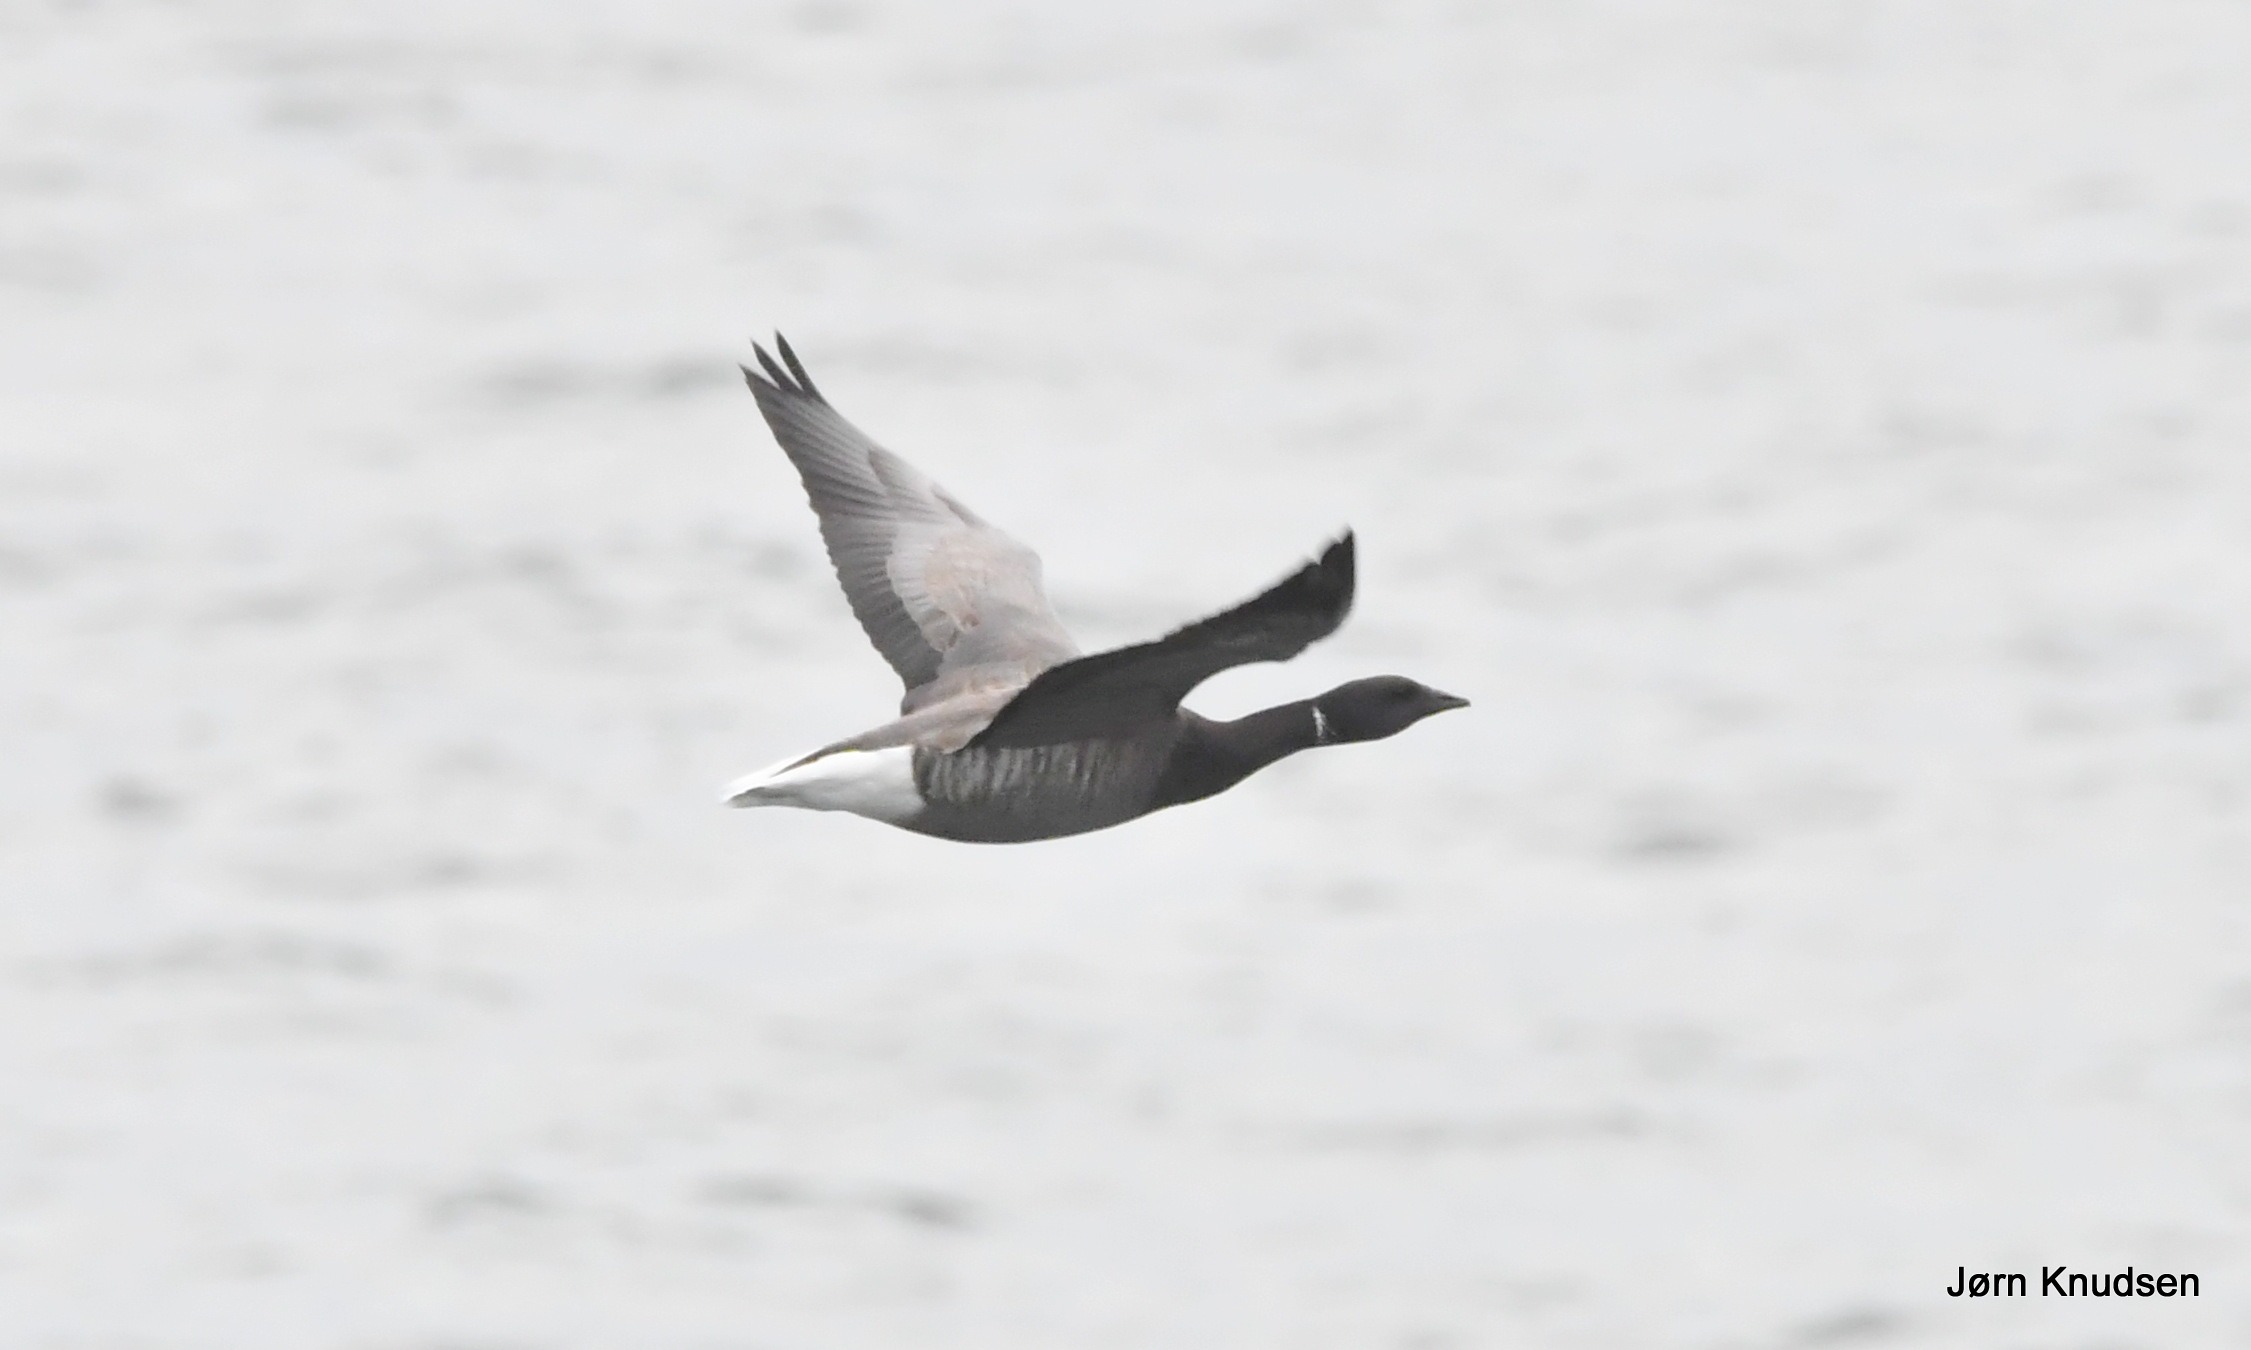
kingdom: Animalia
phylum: Chordata
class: Aves
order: Anseriformes
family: Anatidae
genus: Branta
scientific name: Branta bernicla
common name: Knortegås
